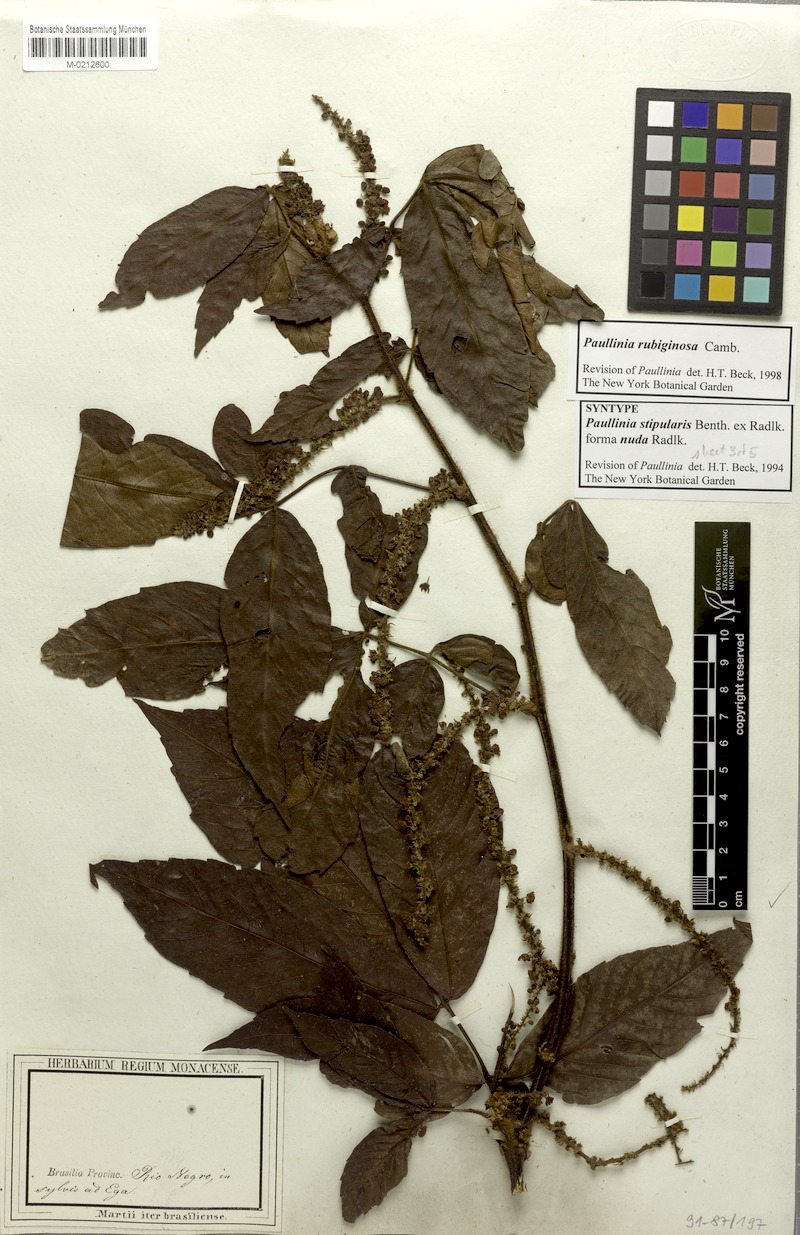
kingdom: Plantae
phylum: Tracheophyta
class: Magnoliopsida
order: Sapindales
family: Sapindaceae
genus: Paullinia
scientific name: Paullinia rubiginosa
